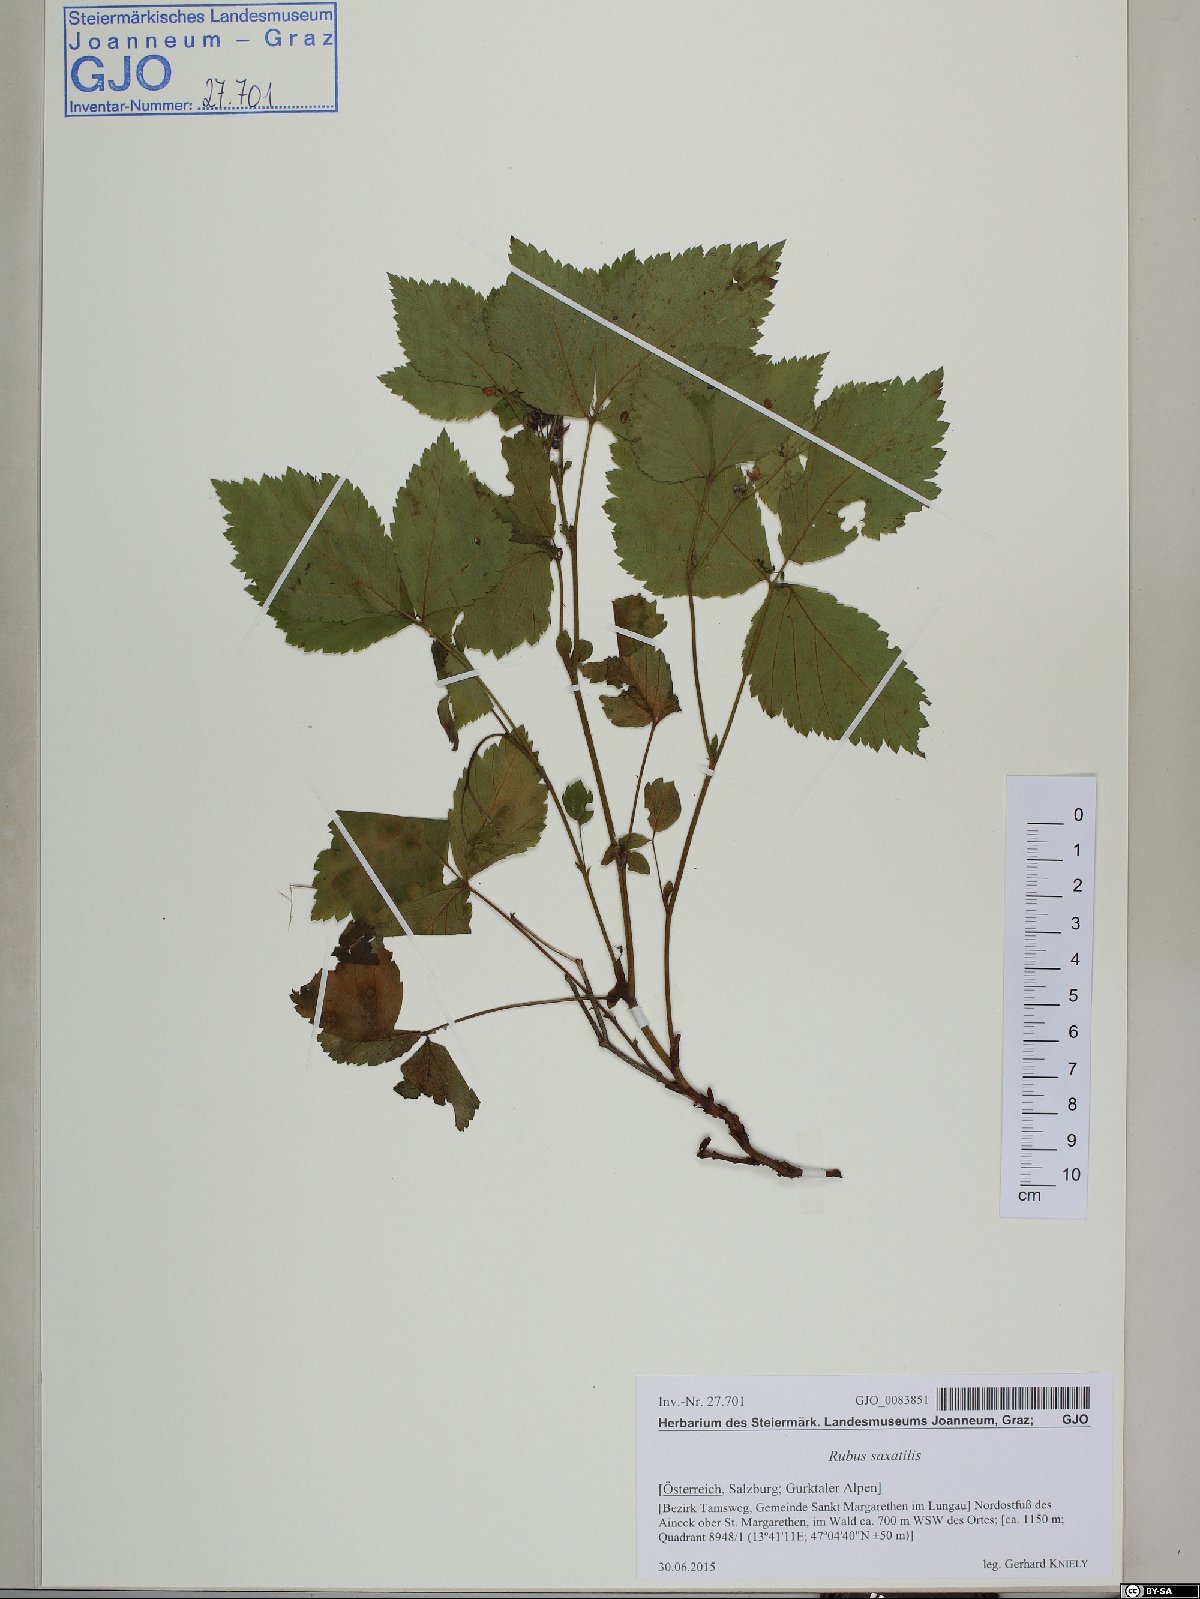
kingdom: Plantae
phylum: Tracheophyta
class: Magnoliopsida
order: Rosales
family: Rosaceae
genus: Rubus
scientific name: Rubus saxatilis
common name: Stone bramble
